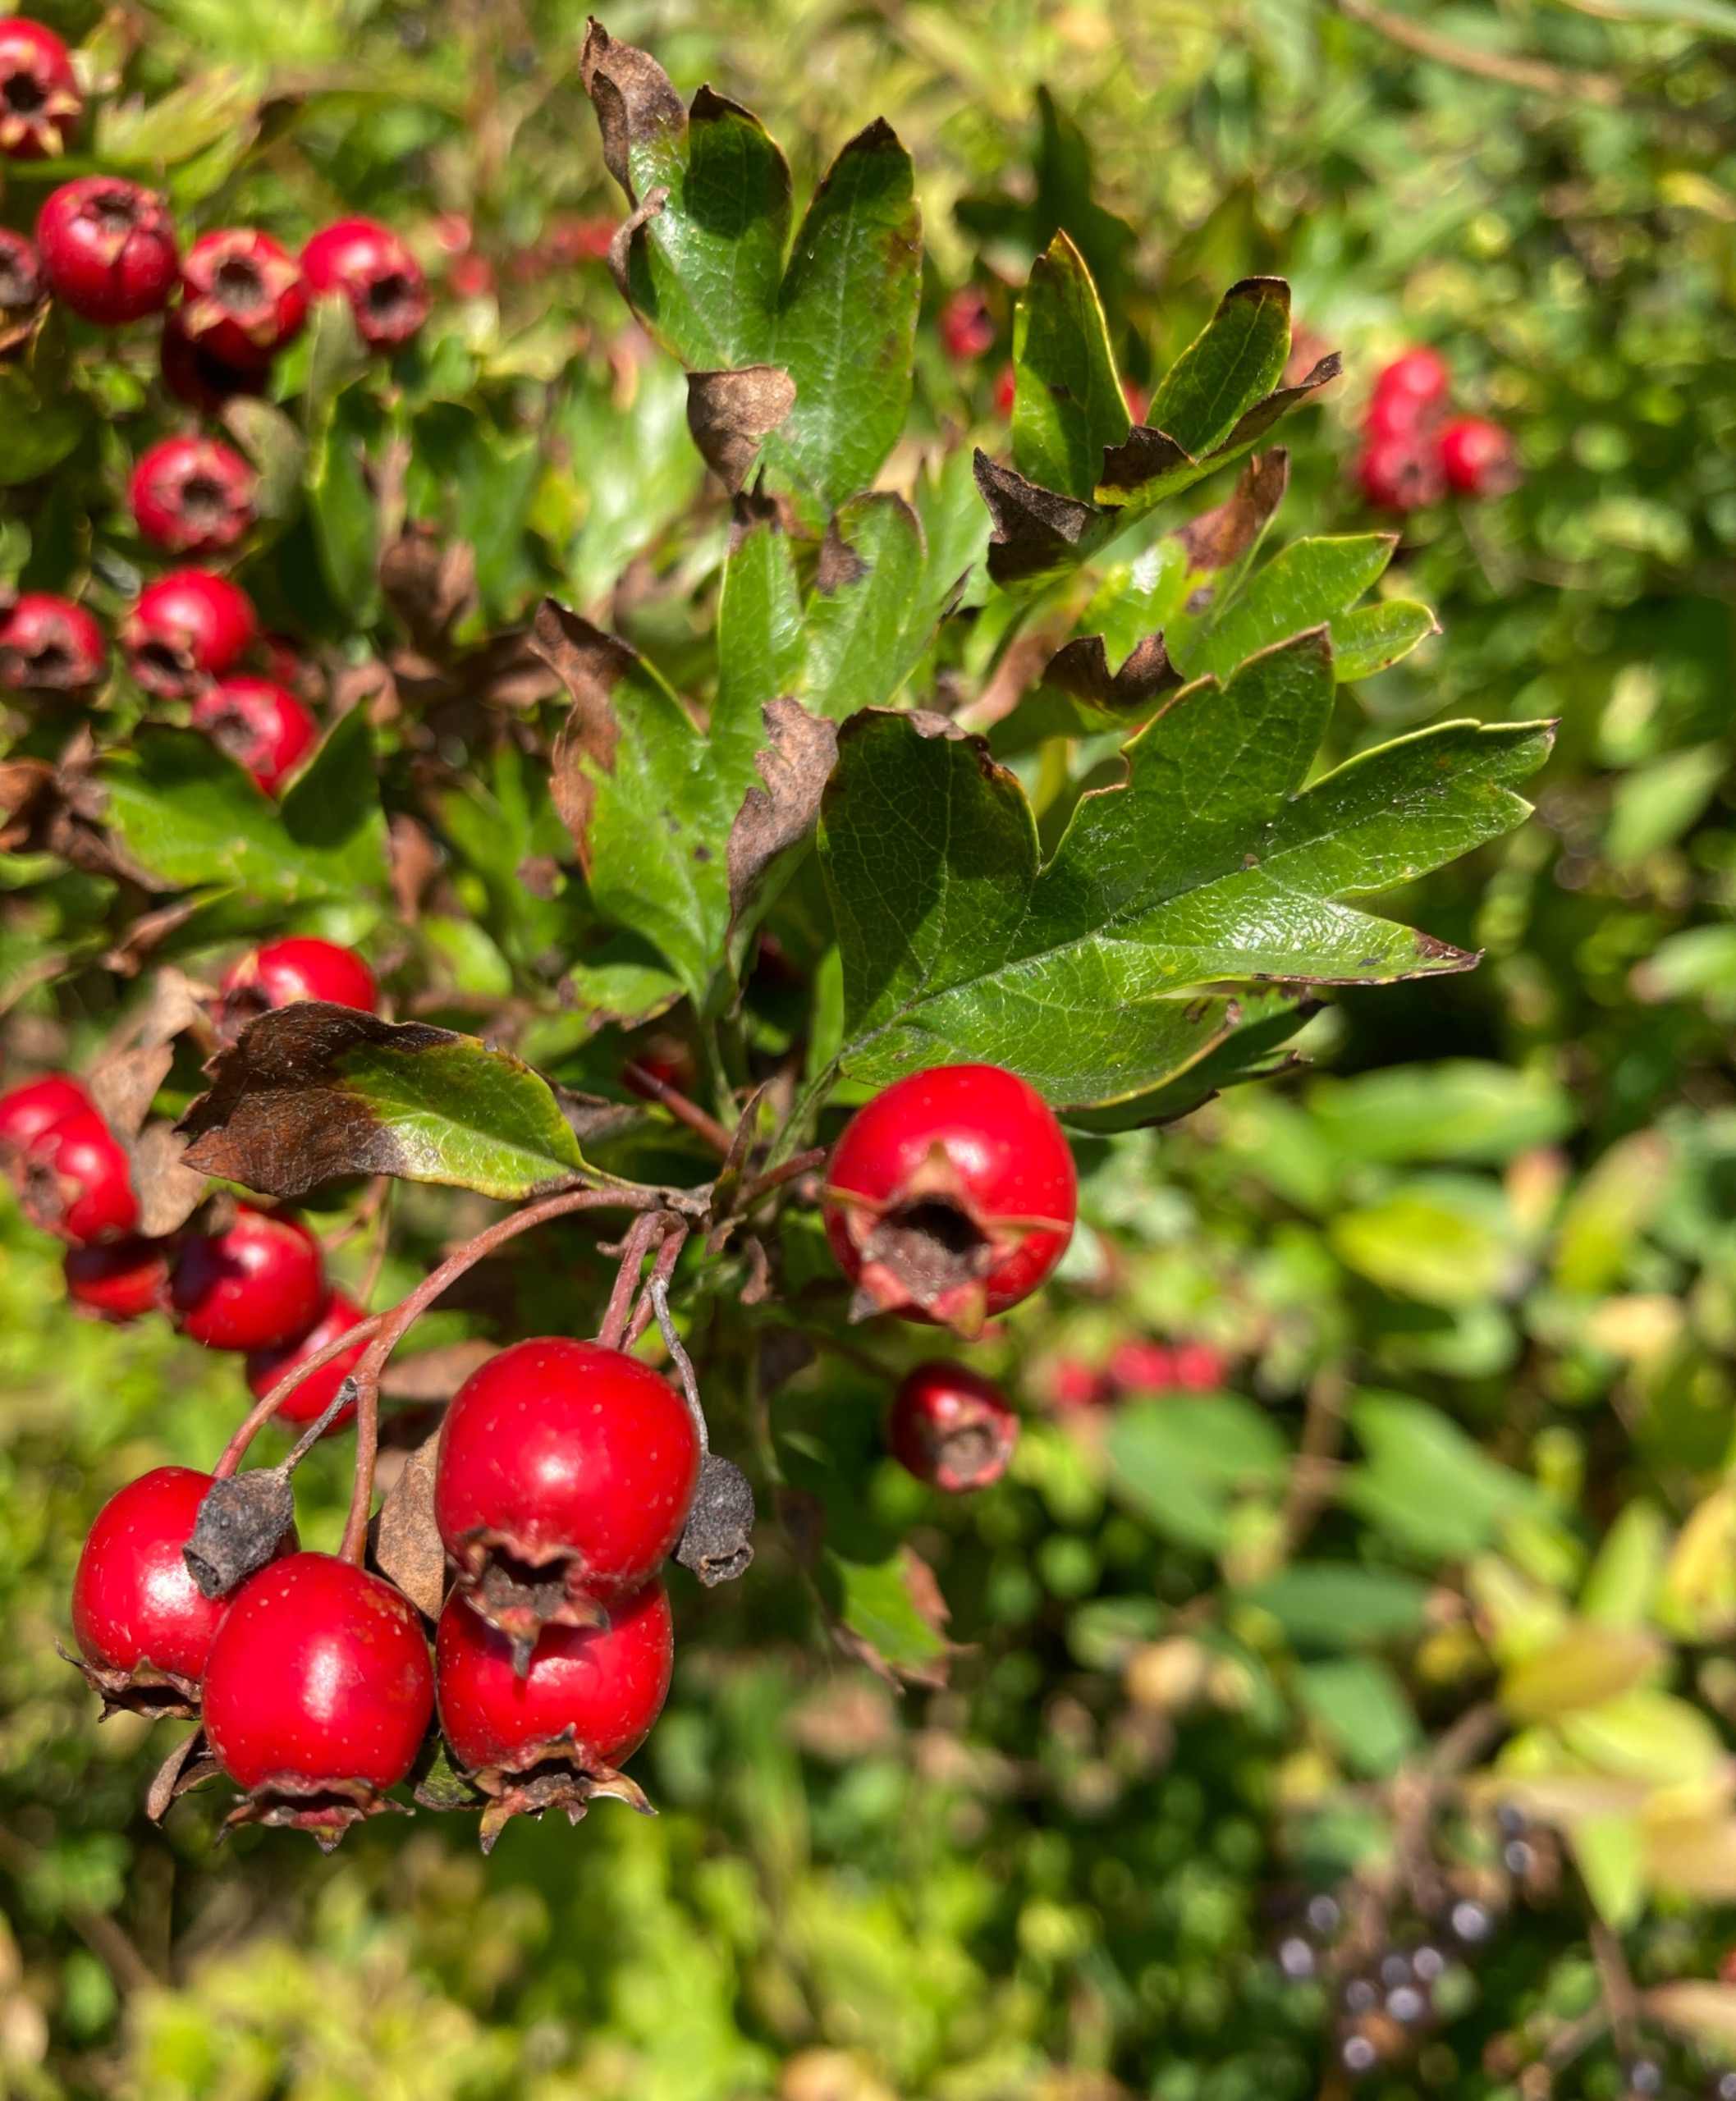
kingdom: Plantae
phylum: Tracheophyta
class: Magnoliopsida
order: Rosales
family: Rosaceae
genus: Crataegus
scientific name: Crataegus monogyna
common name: Engriflet hvidtjørn
